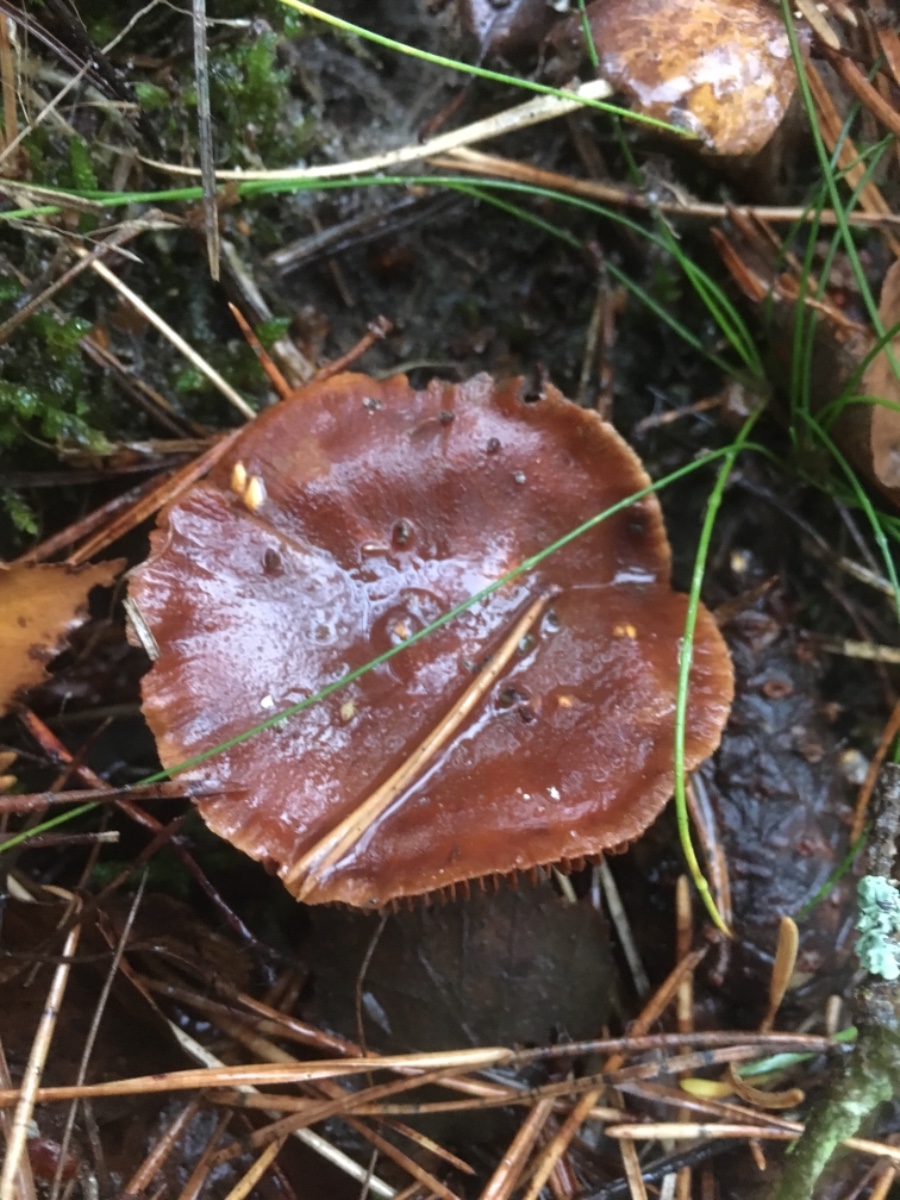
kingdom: Fungi
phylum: Basidiomycota
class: Agaricomycetes
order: Agaricales
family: Cortinariaceae
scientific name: Cortinariaceae
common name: slørhatfamilien
